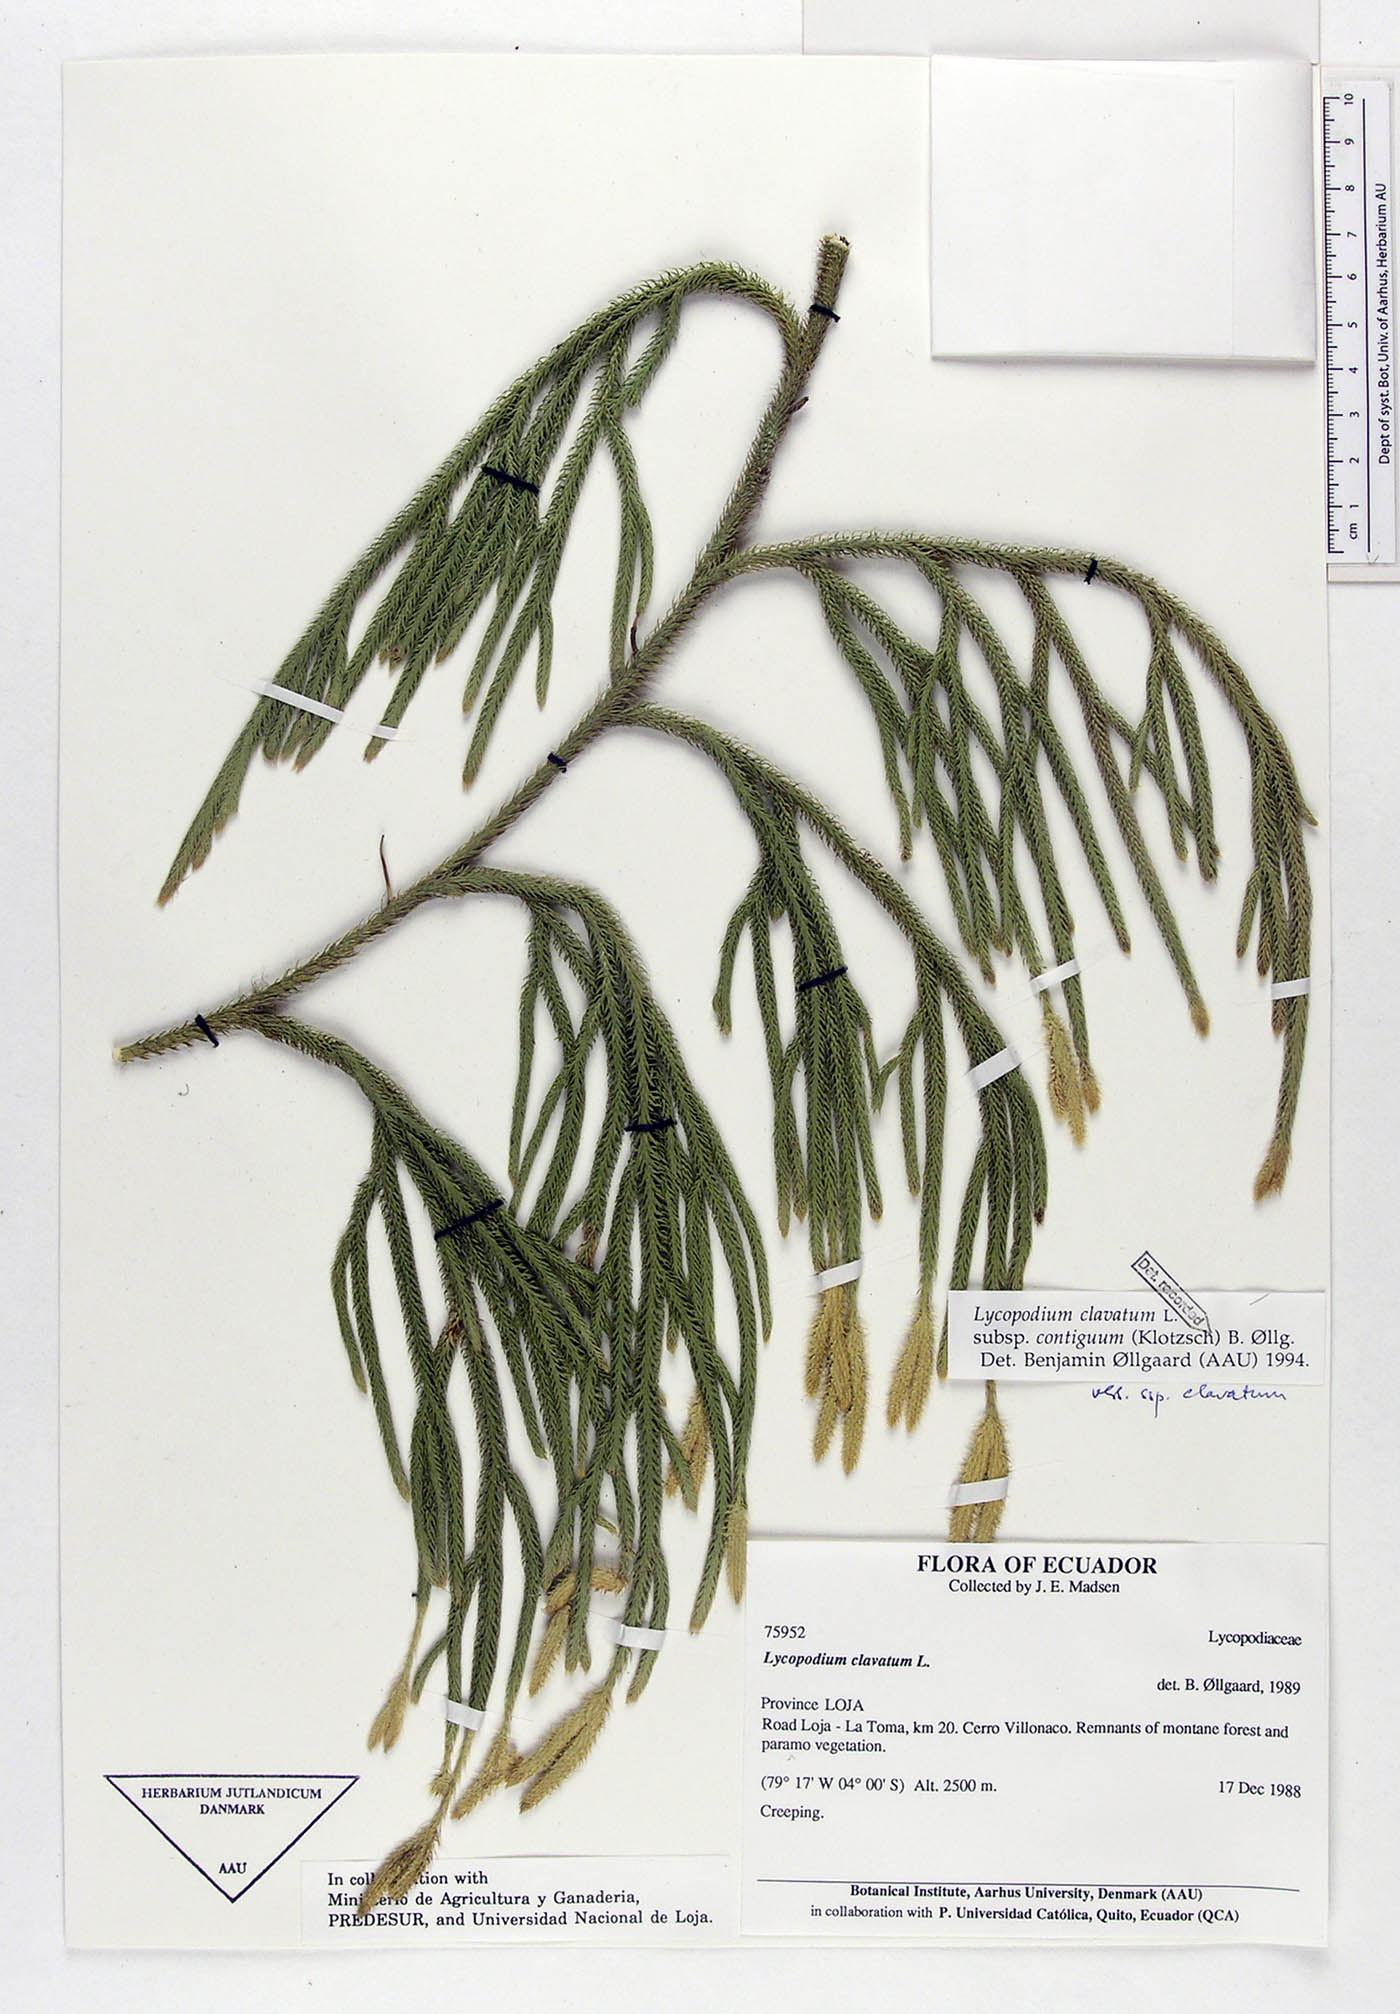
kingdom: Plantae
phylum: Tracheophyta
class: Lycopodiopsida
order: Lycopodiales
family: Lycopodiaceae
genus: Lycopodium
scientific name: Lycopodium clavatum
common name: Stag's-horn clubmoss
